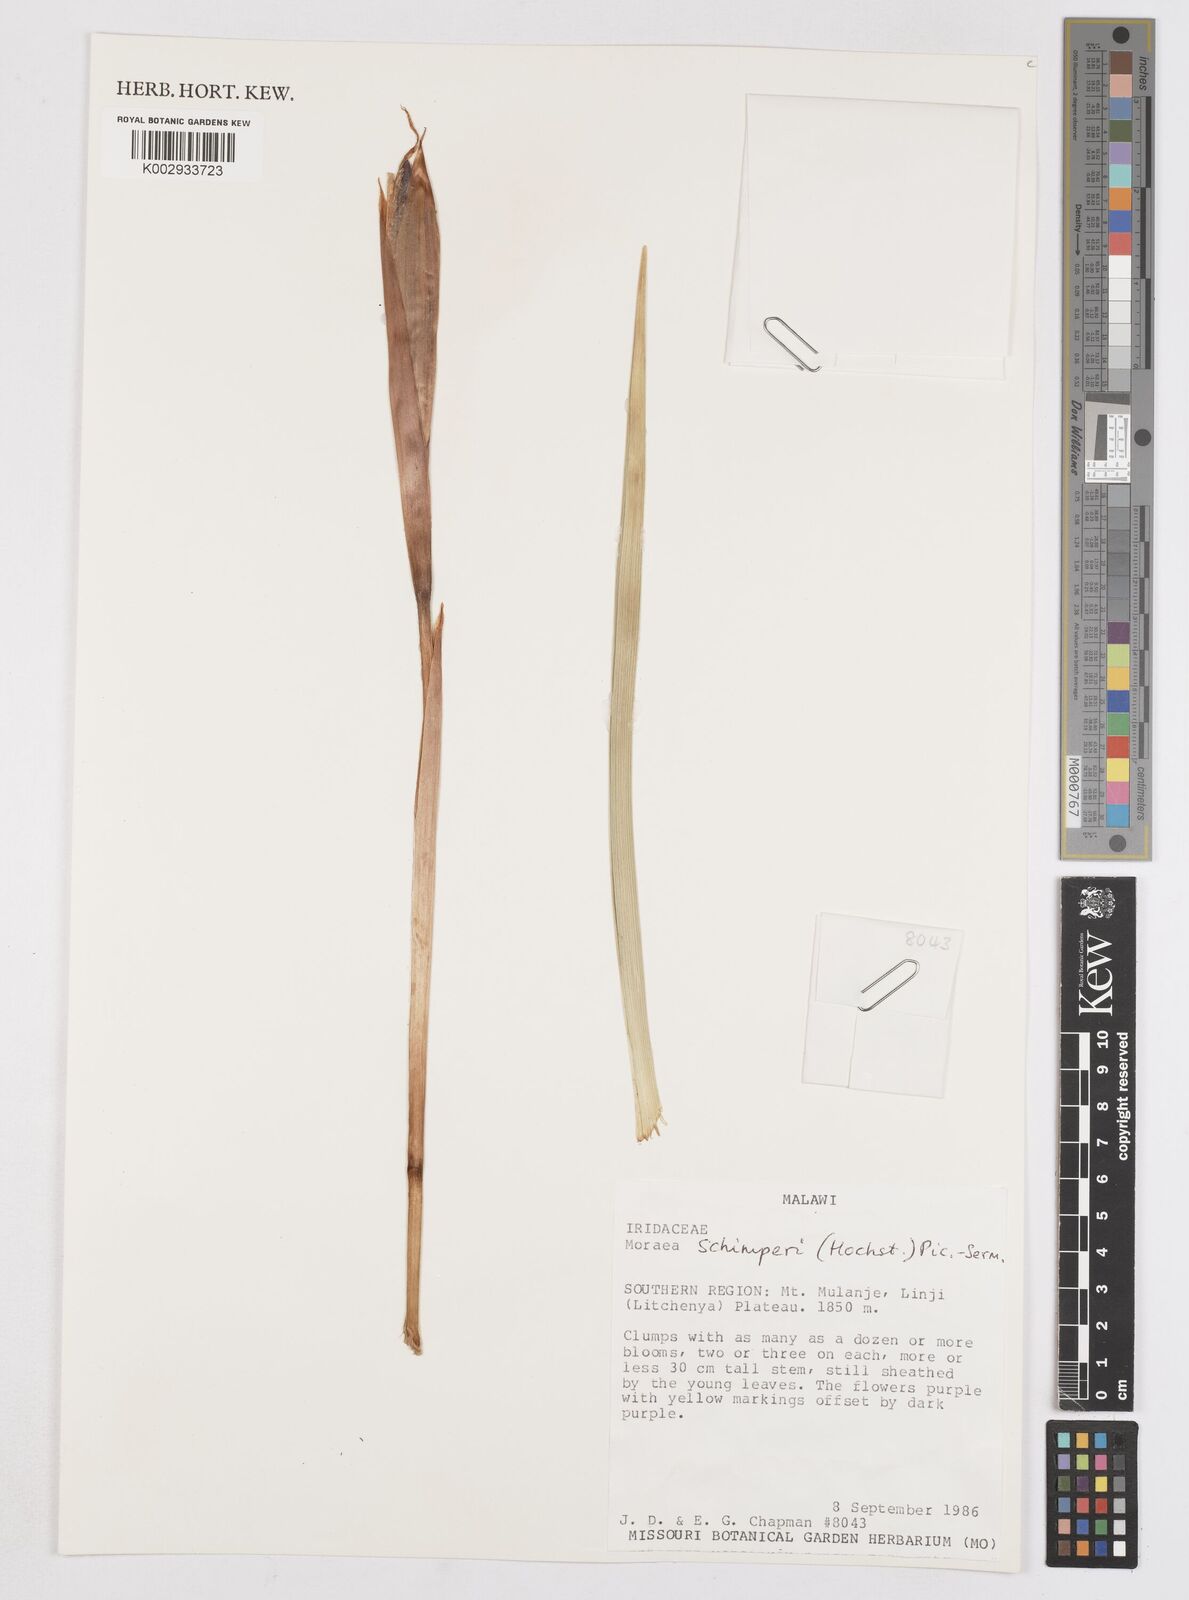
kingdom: Plantae
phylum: Tracheophyta
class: Liliopsida
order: Asparagales
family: Iridaceae
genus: Moraea
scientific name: Moraea schimperi
